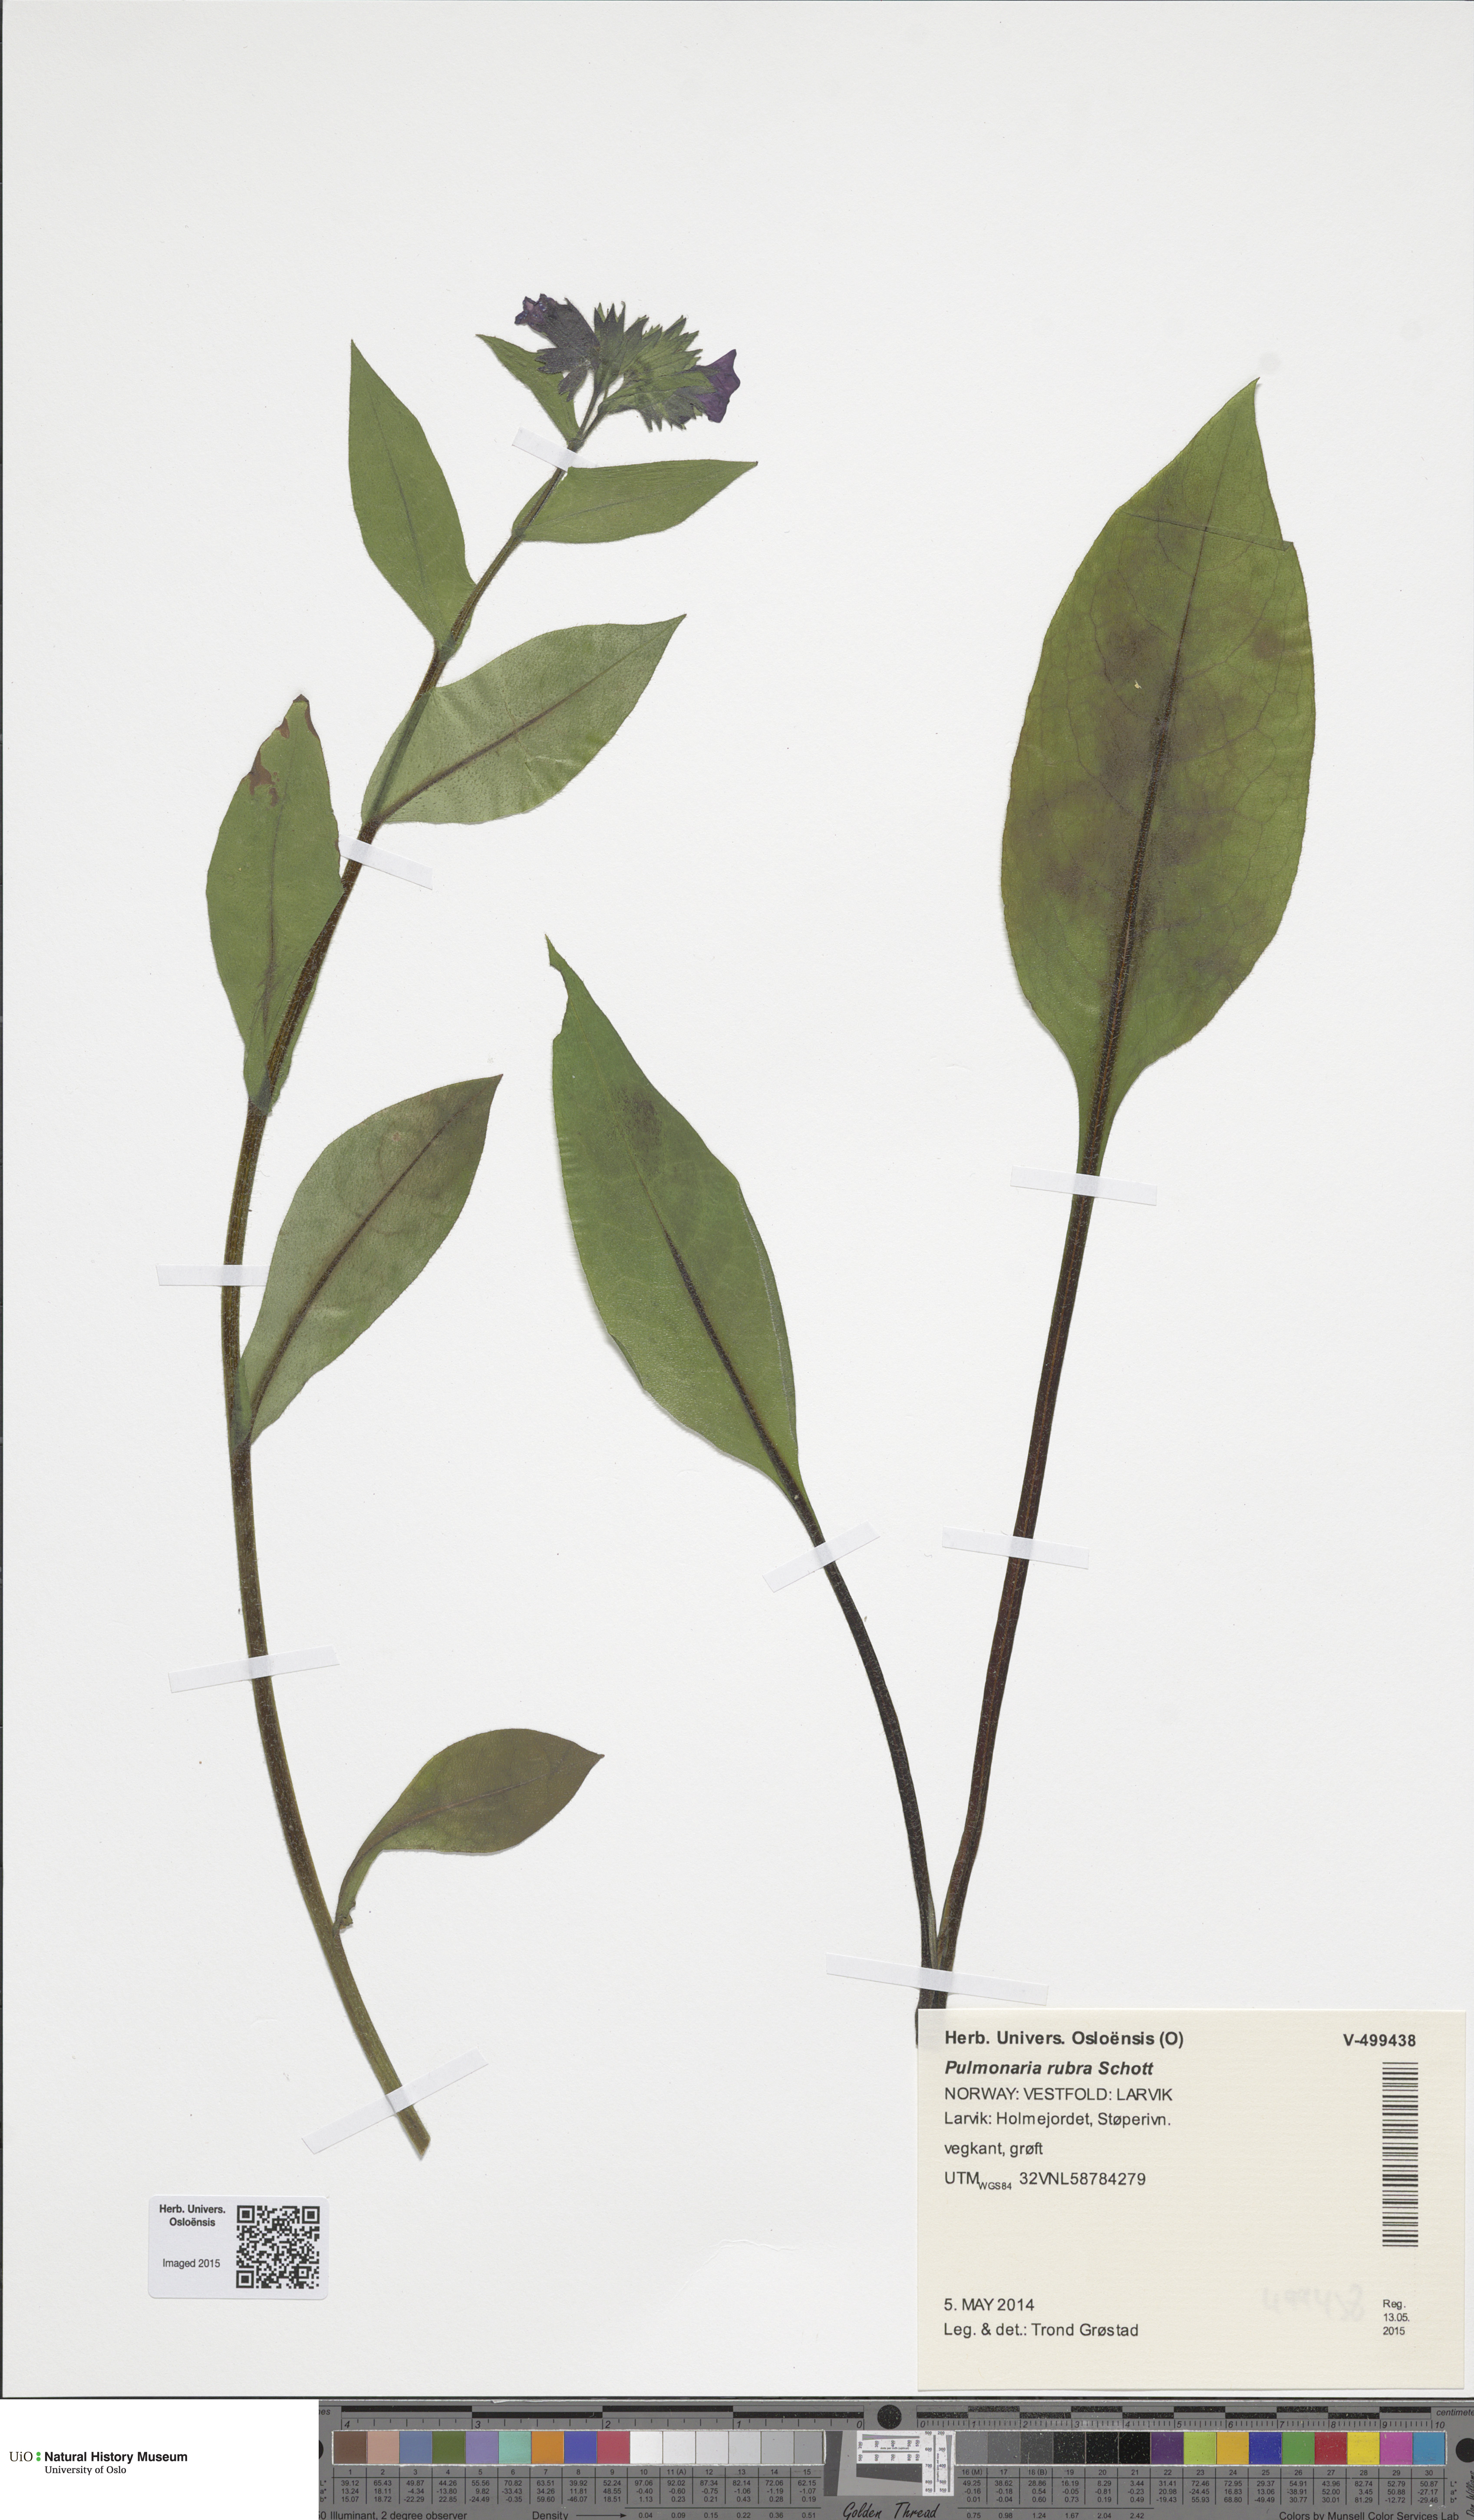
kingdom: Plantae
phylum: Tracheophyta
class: Magnoliopsida
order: Boraginales
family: Boraginaceae
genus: Pulmonaria
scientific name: Pulmonaria rubra
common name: Red lungwort
